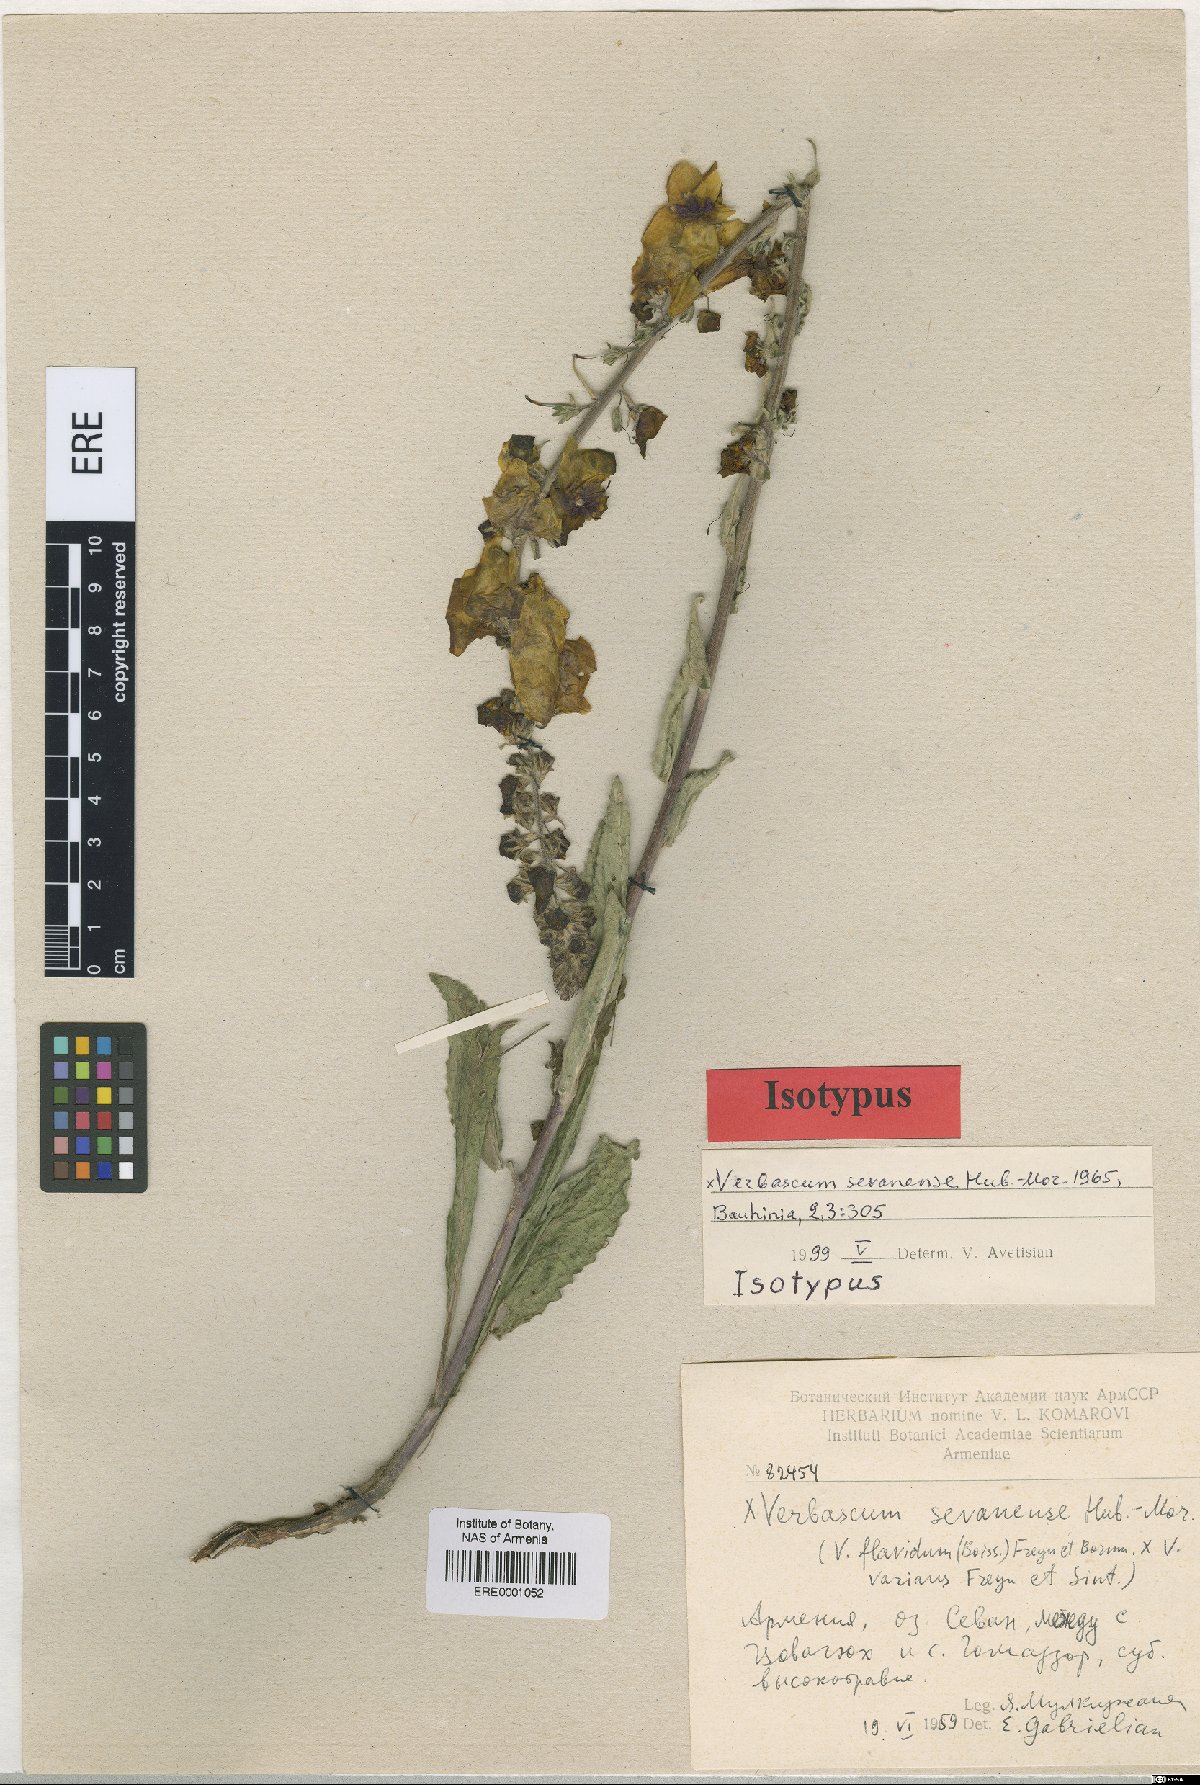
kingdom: Plantae
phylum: Tracheophyta
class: Magnoliopsida
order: Lamiales
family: Scrophulariaceae
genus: Verbascum
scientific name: Verbascum sevanense
